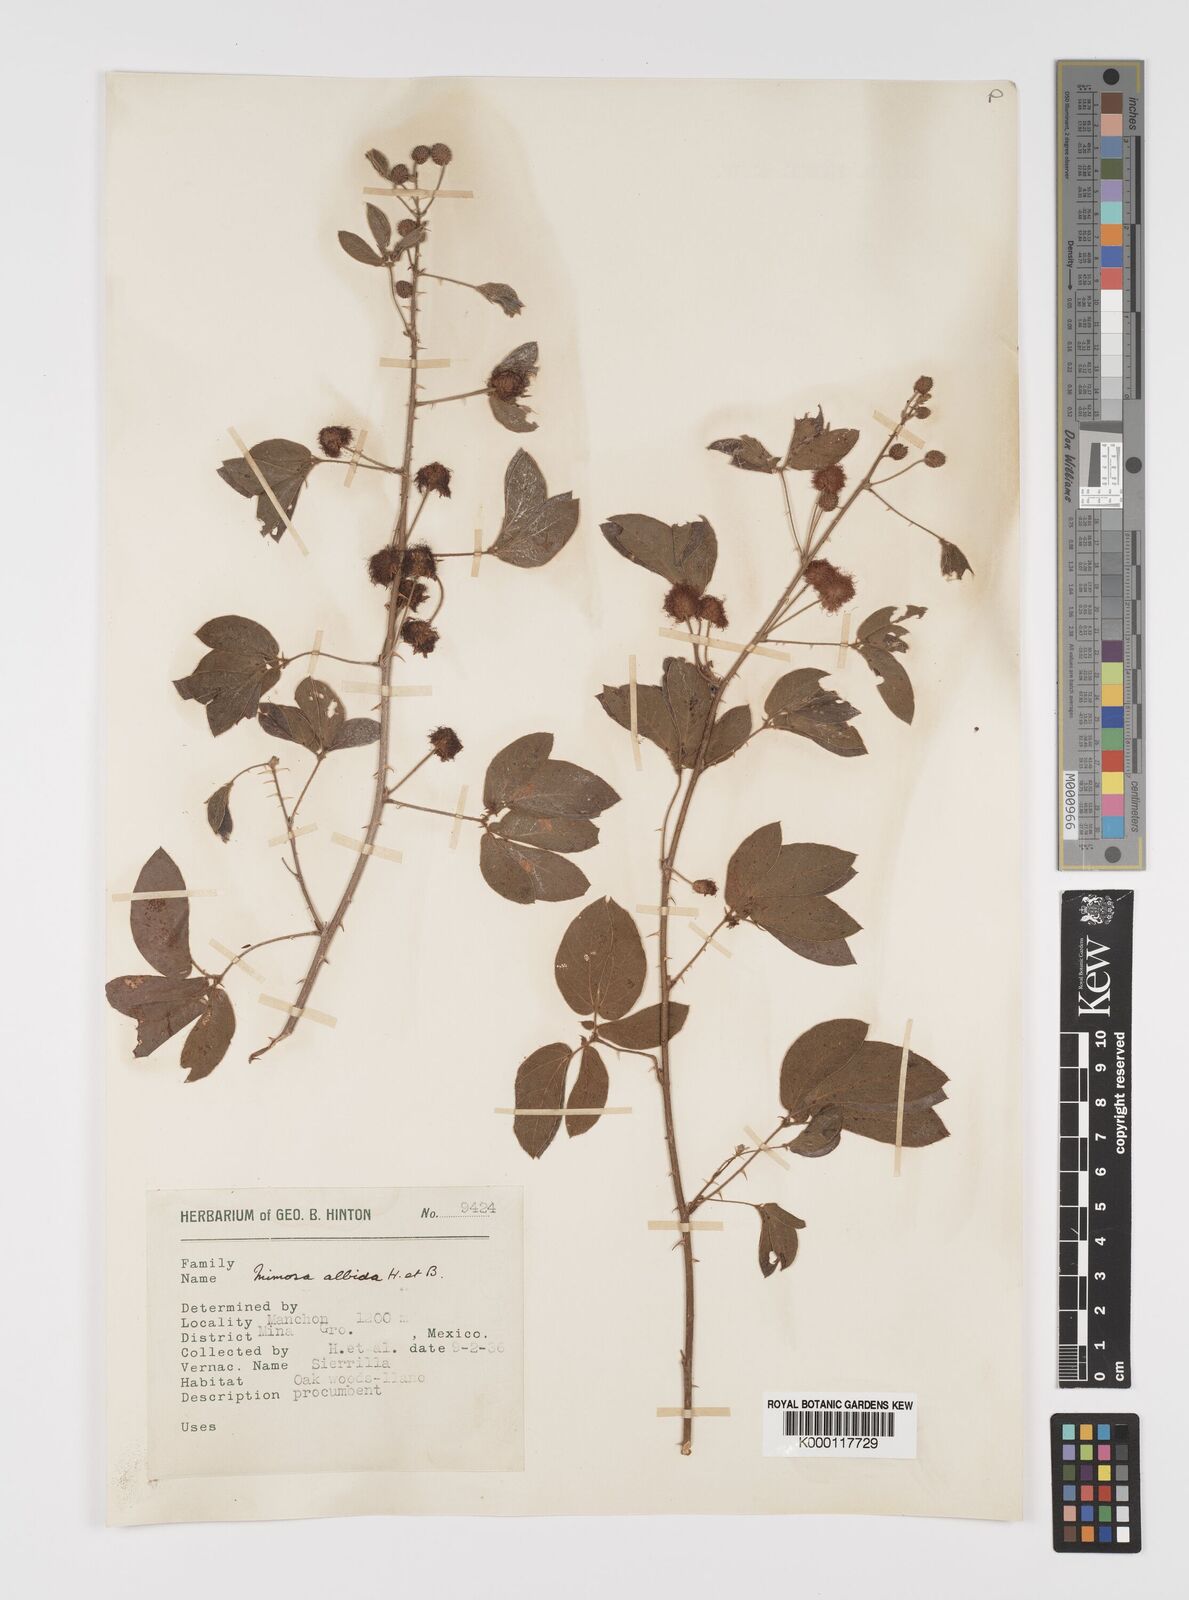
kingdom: Plantae
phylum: Tracheophyta
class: Magnoliopsida
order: Fabales
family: Fabaceae
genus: Mimosa
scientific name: Mimosa albida
